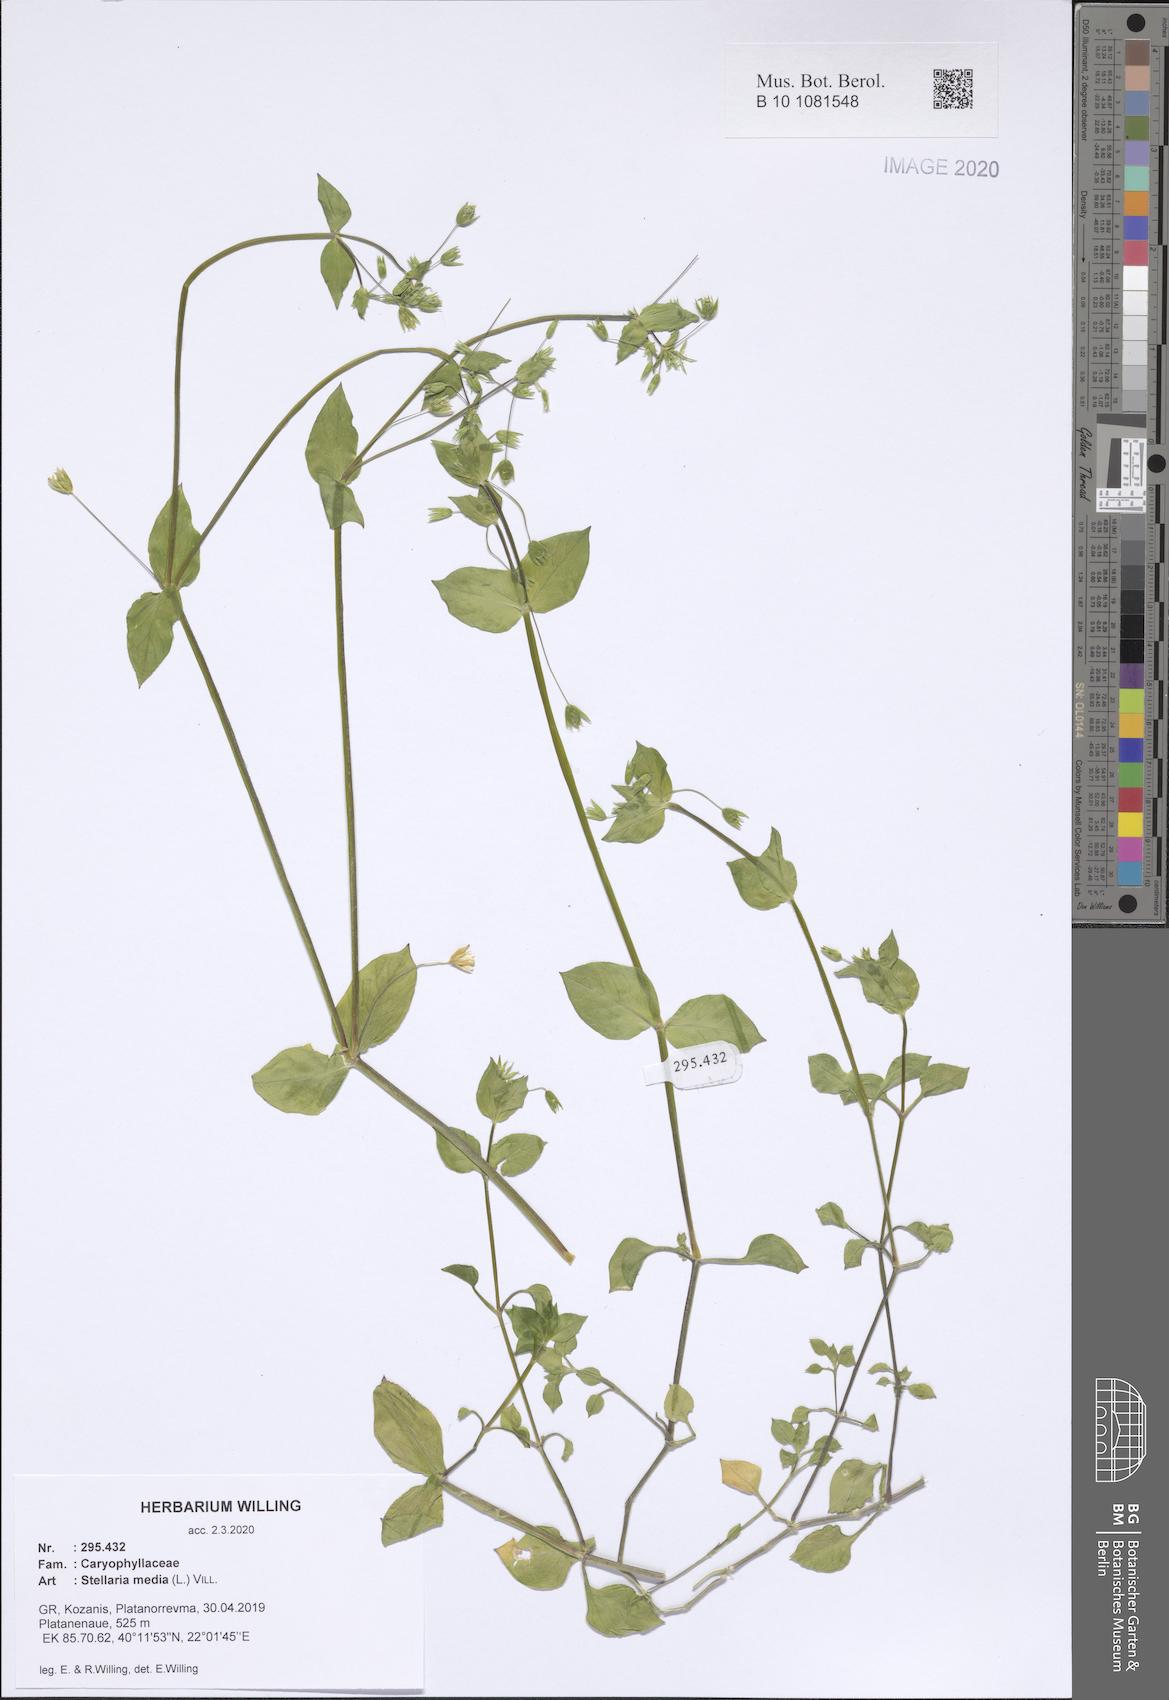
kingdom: Plantae
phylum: Tracheophyta
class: Magnoliopsida
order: Caryophyllales
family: Caryophyllaceae
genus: Stellaria
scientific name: Stellaria media
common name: Common chickweed
